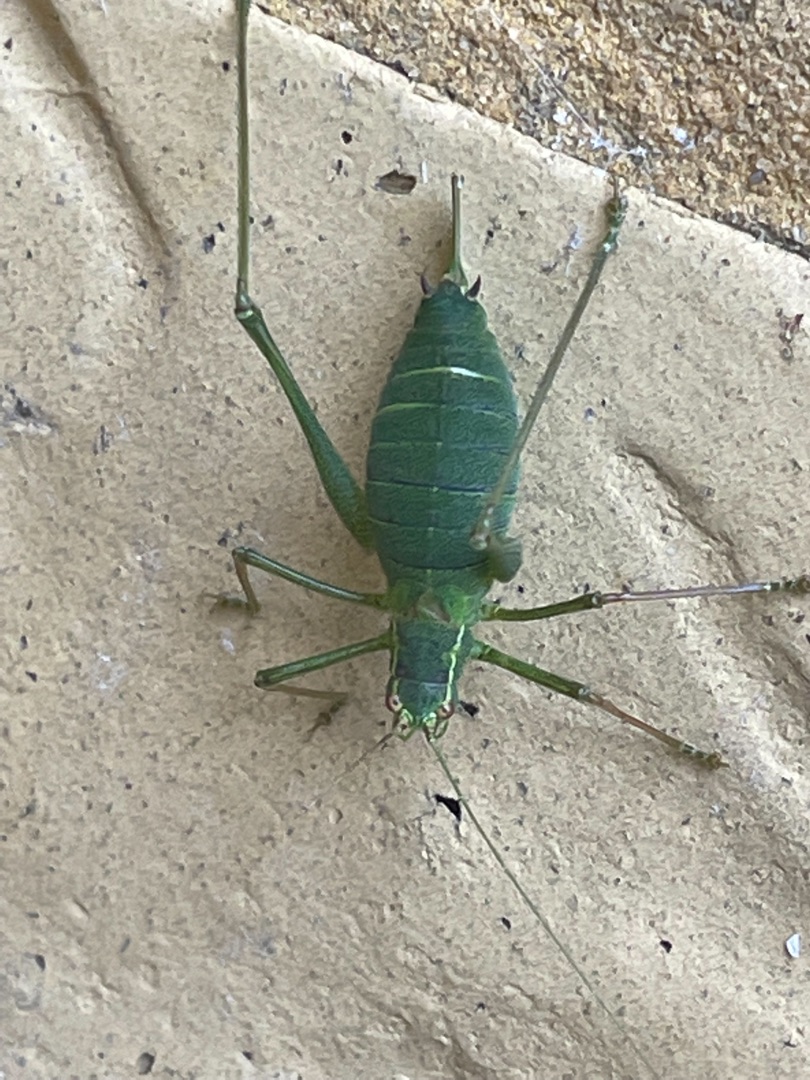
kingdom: Animalia
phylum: Arthropoda
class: Insecta
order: Orthoptera
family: Tettigoniidae
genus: Leptophyes
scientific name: Leptophyes punctatissima
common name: Krumknivgræshoppe
